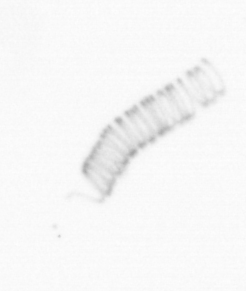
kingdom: Chromista
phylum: Ochrophyta
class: Bacillariophyceae
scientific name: Bacillariophyceae
